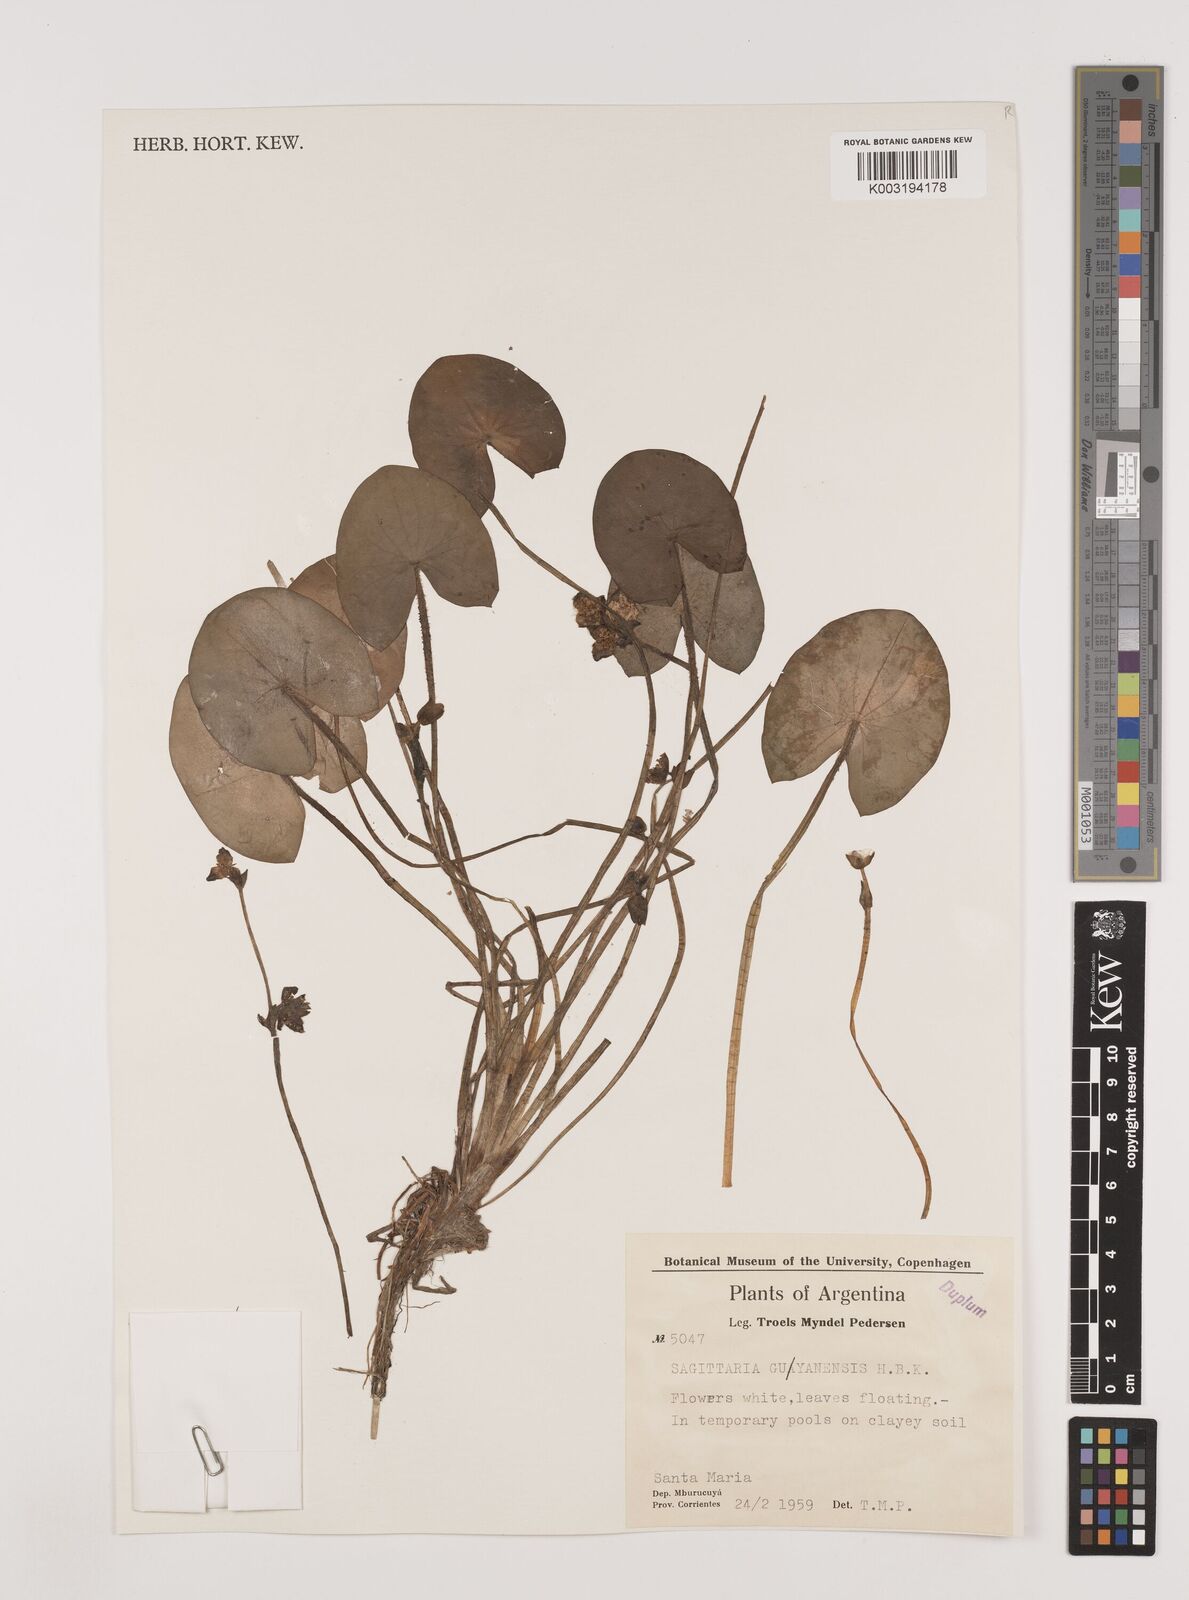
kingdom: Plantae
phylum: Tracheophyta
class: Liliopsida
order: Alismatales
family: Alismataceae
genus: Sagittaria
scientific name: Sagittaria guayanensis
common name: Guyanese arrowhead
